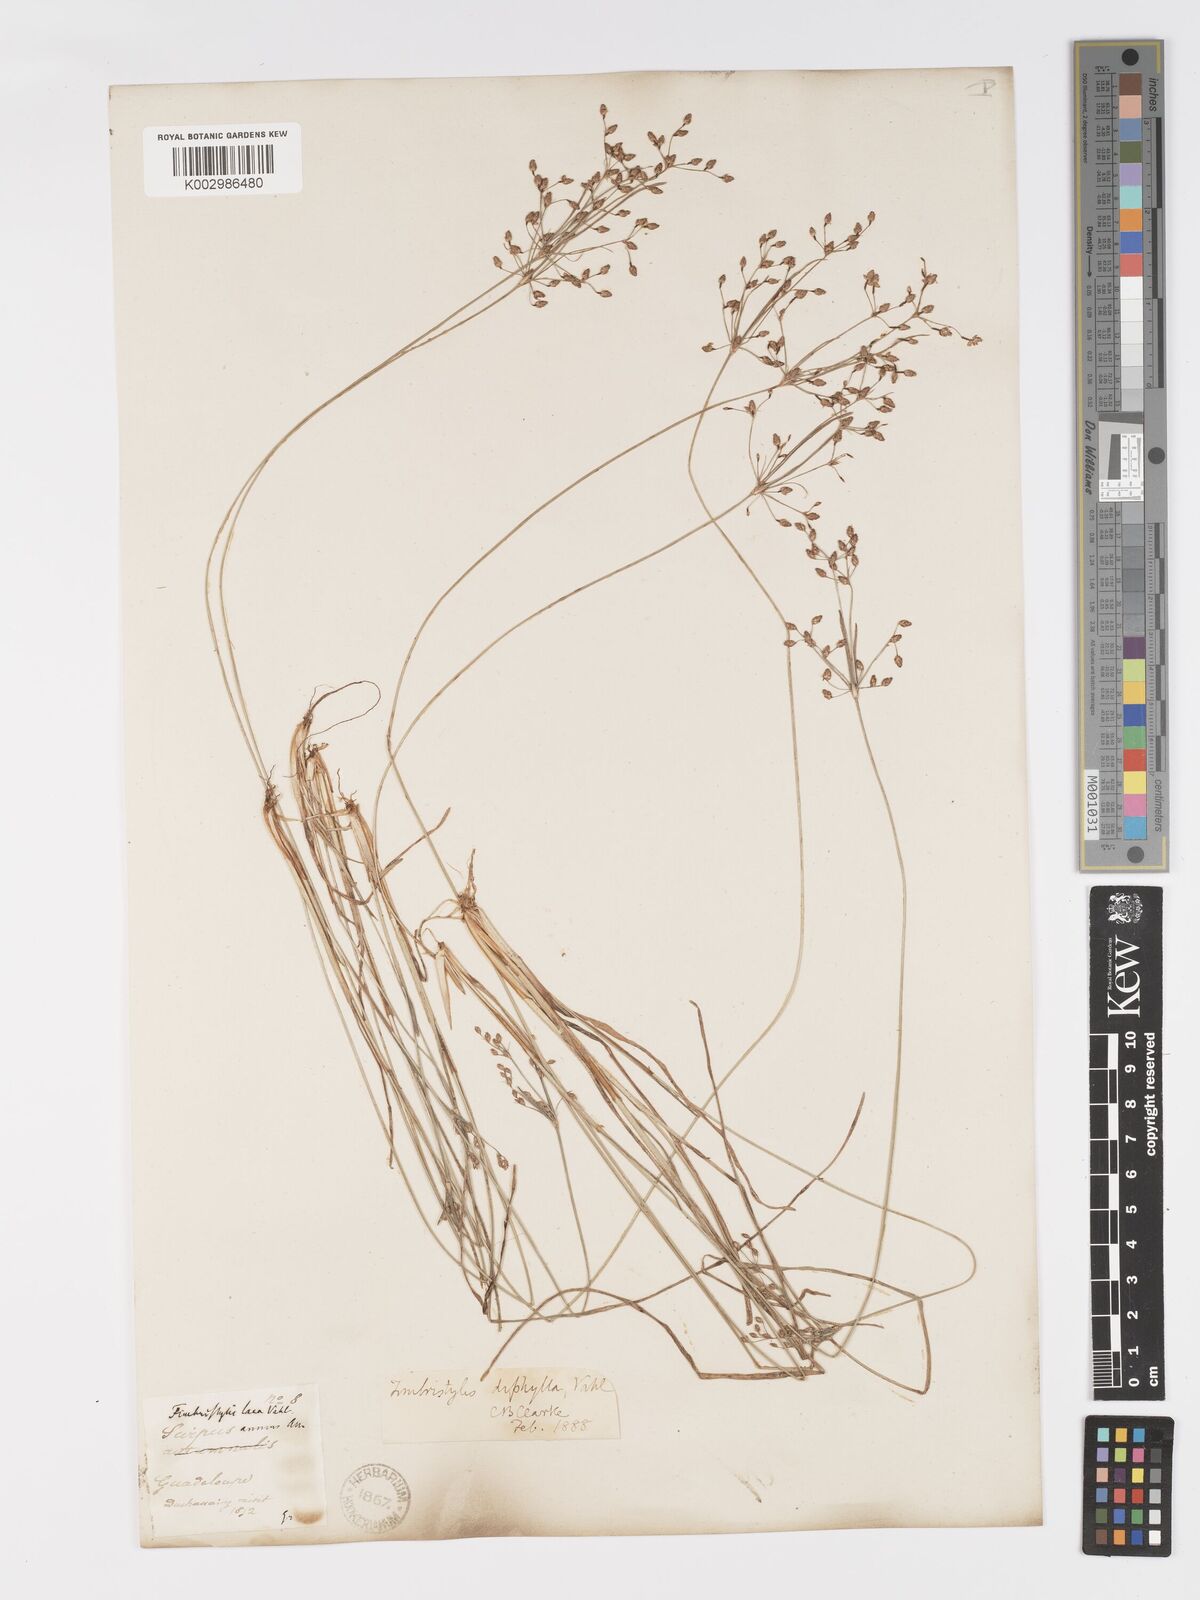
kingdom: Plantae
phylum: Tracheophyta
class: Liliopsida
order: Poales
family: Cyperaceae
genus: Fimbristylis
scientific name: Fimbristylis dichotoma
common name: Forked fimbry
